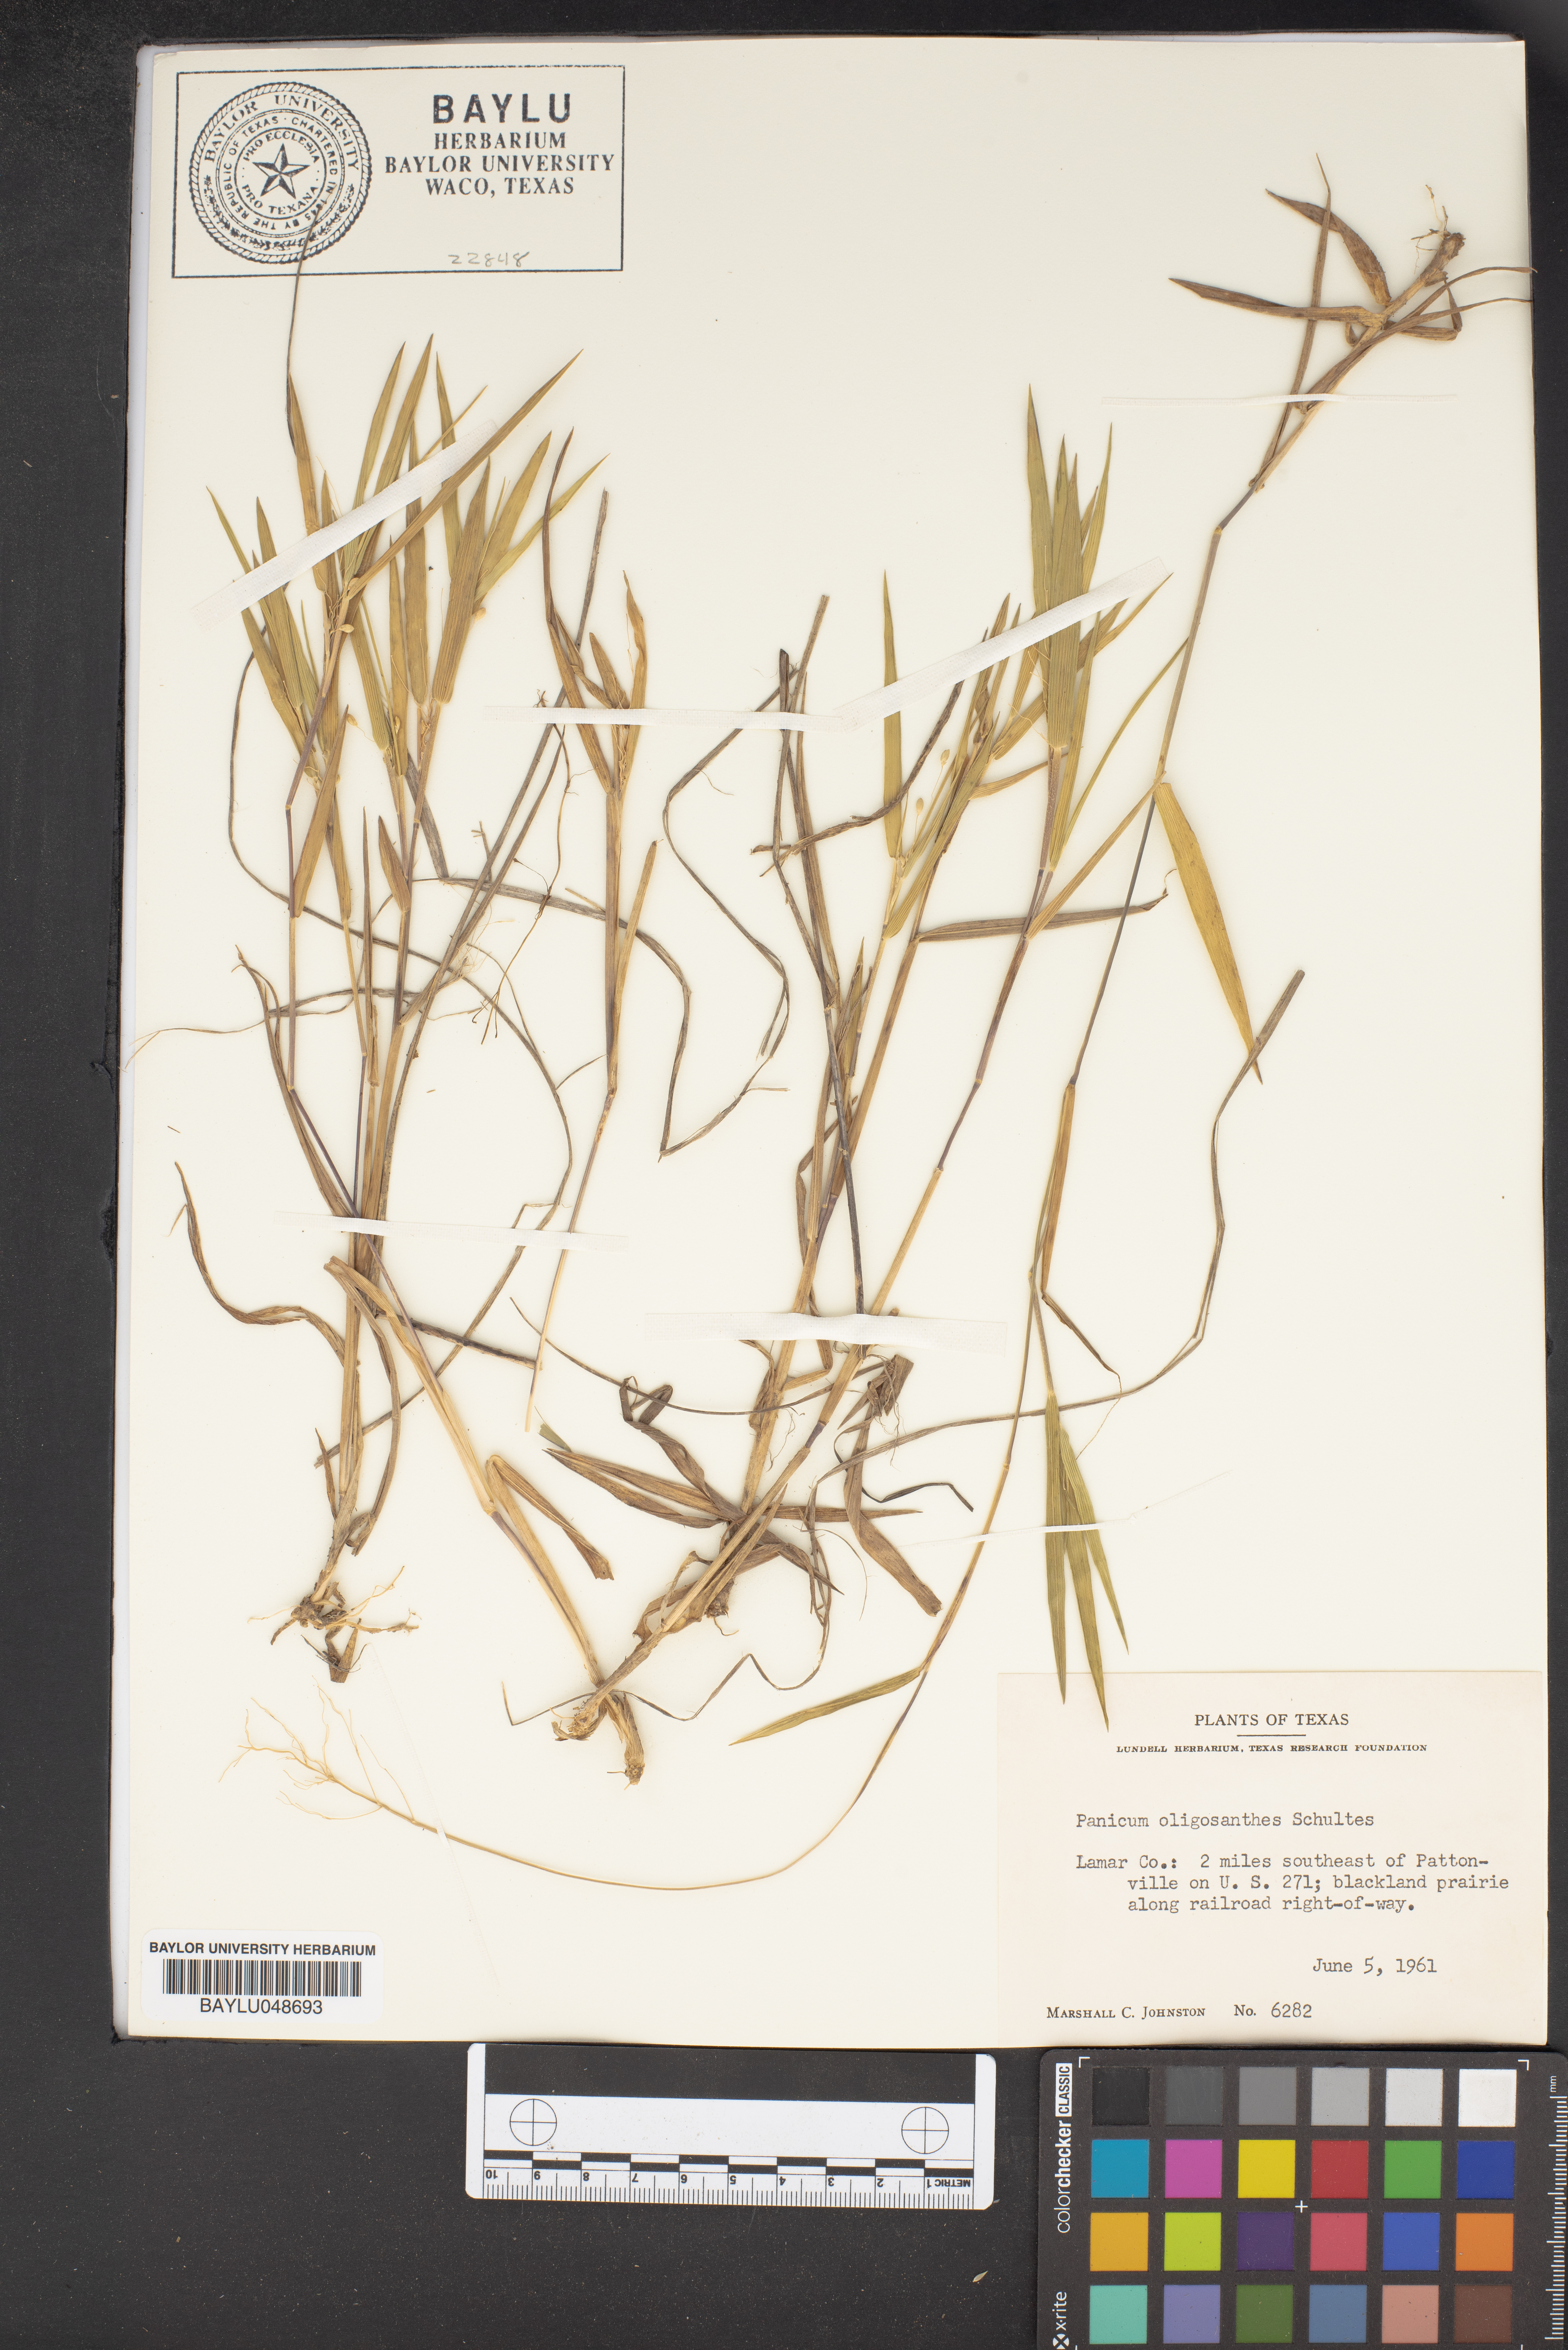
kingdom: Plantae
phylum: Tracheophyta
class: Liliopsida
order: Poales
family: Poaceae
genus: Dichanthelium
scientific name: Dichanthelium oligosanthes
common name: Few-anther obscuregrass
